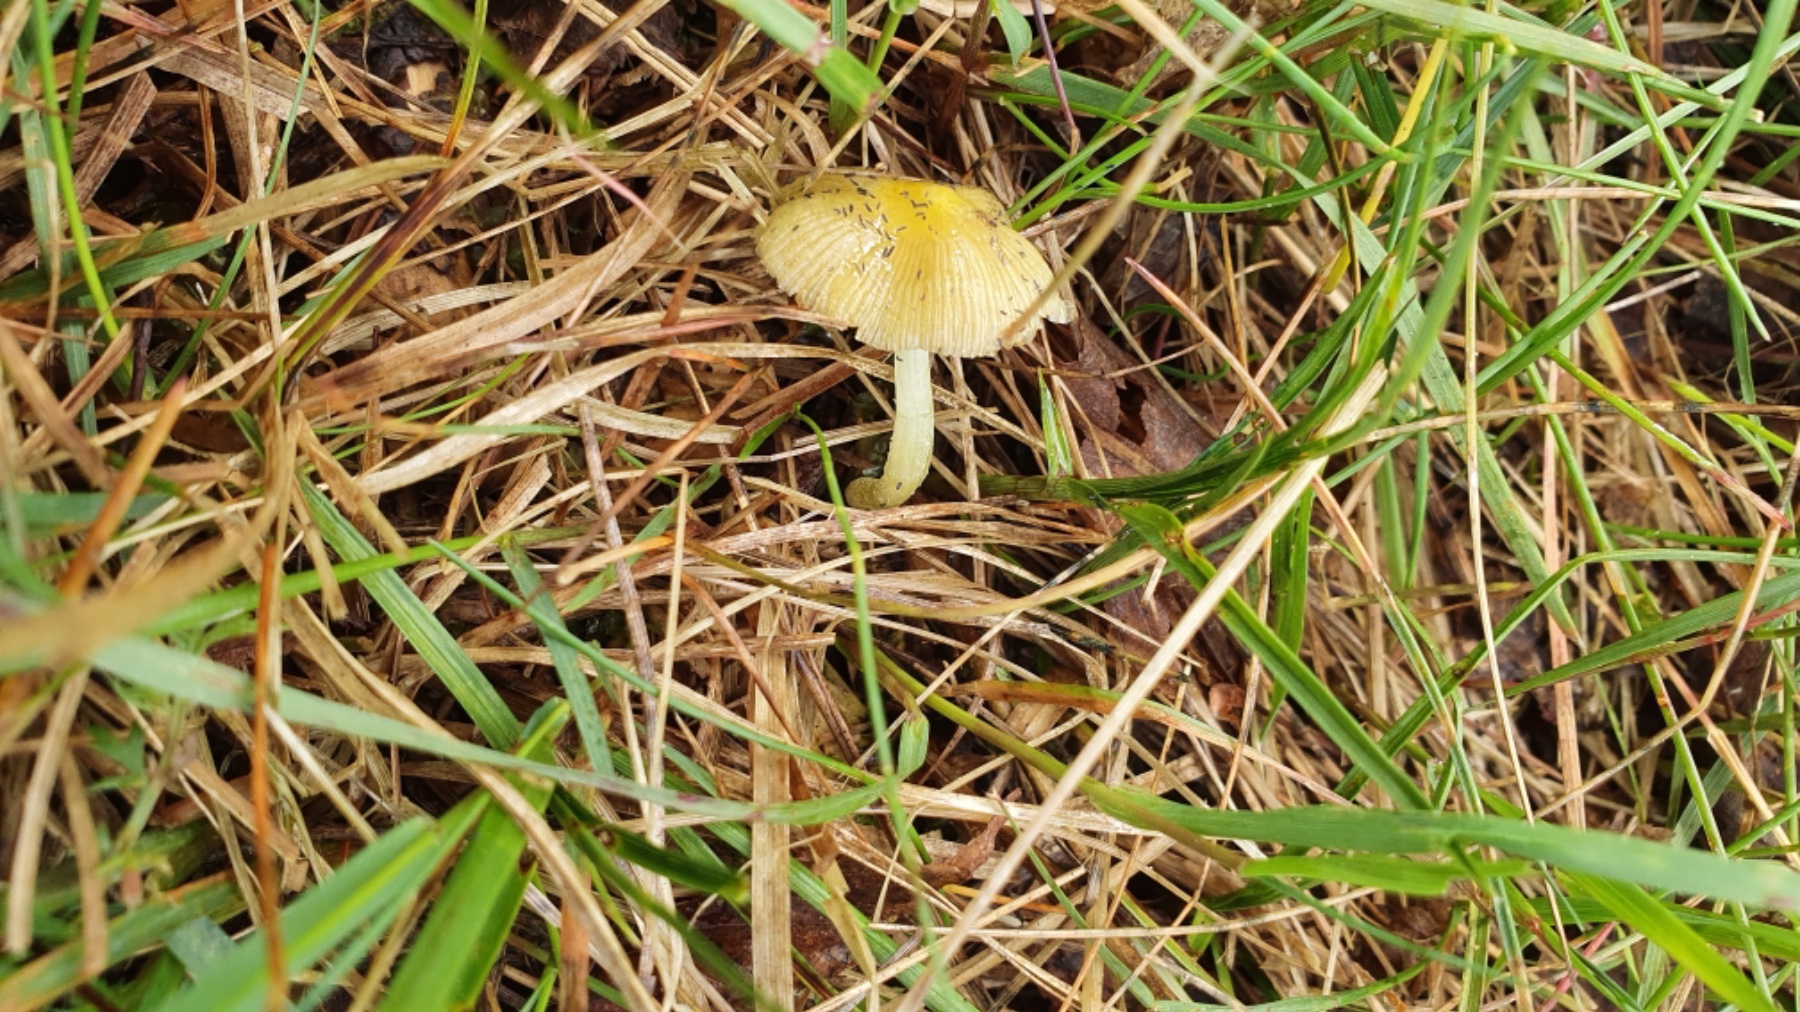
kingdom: Fungi
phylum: Basidiomycota
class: Agaricomycetes
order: Agaricales
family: Bolbitiaceae
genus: Bolbitius
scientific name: Bolbitius titubans
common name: almindelig gulhat
